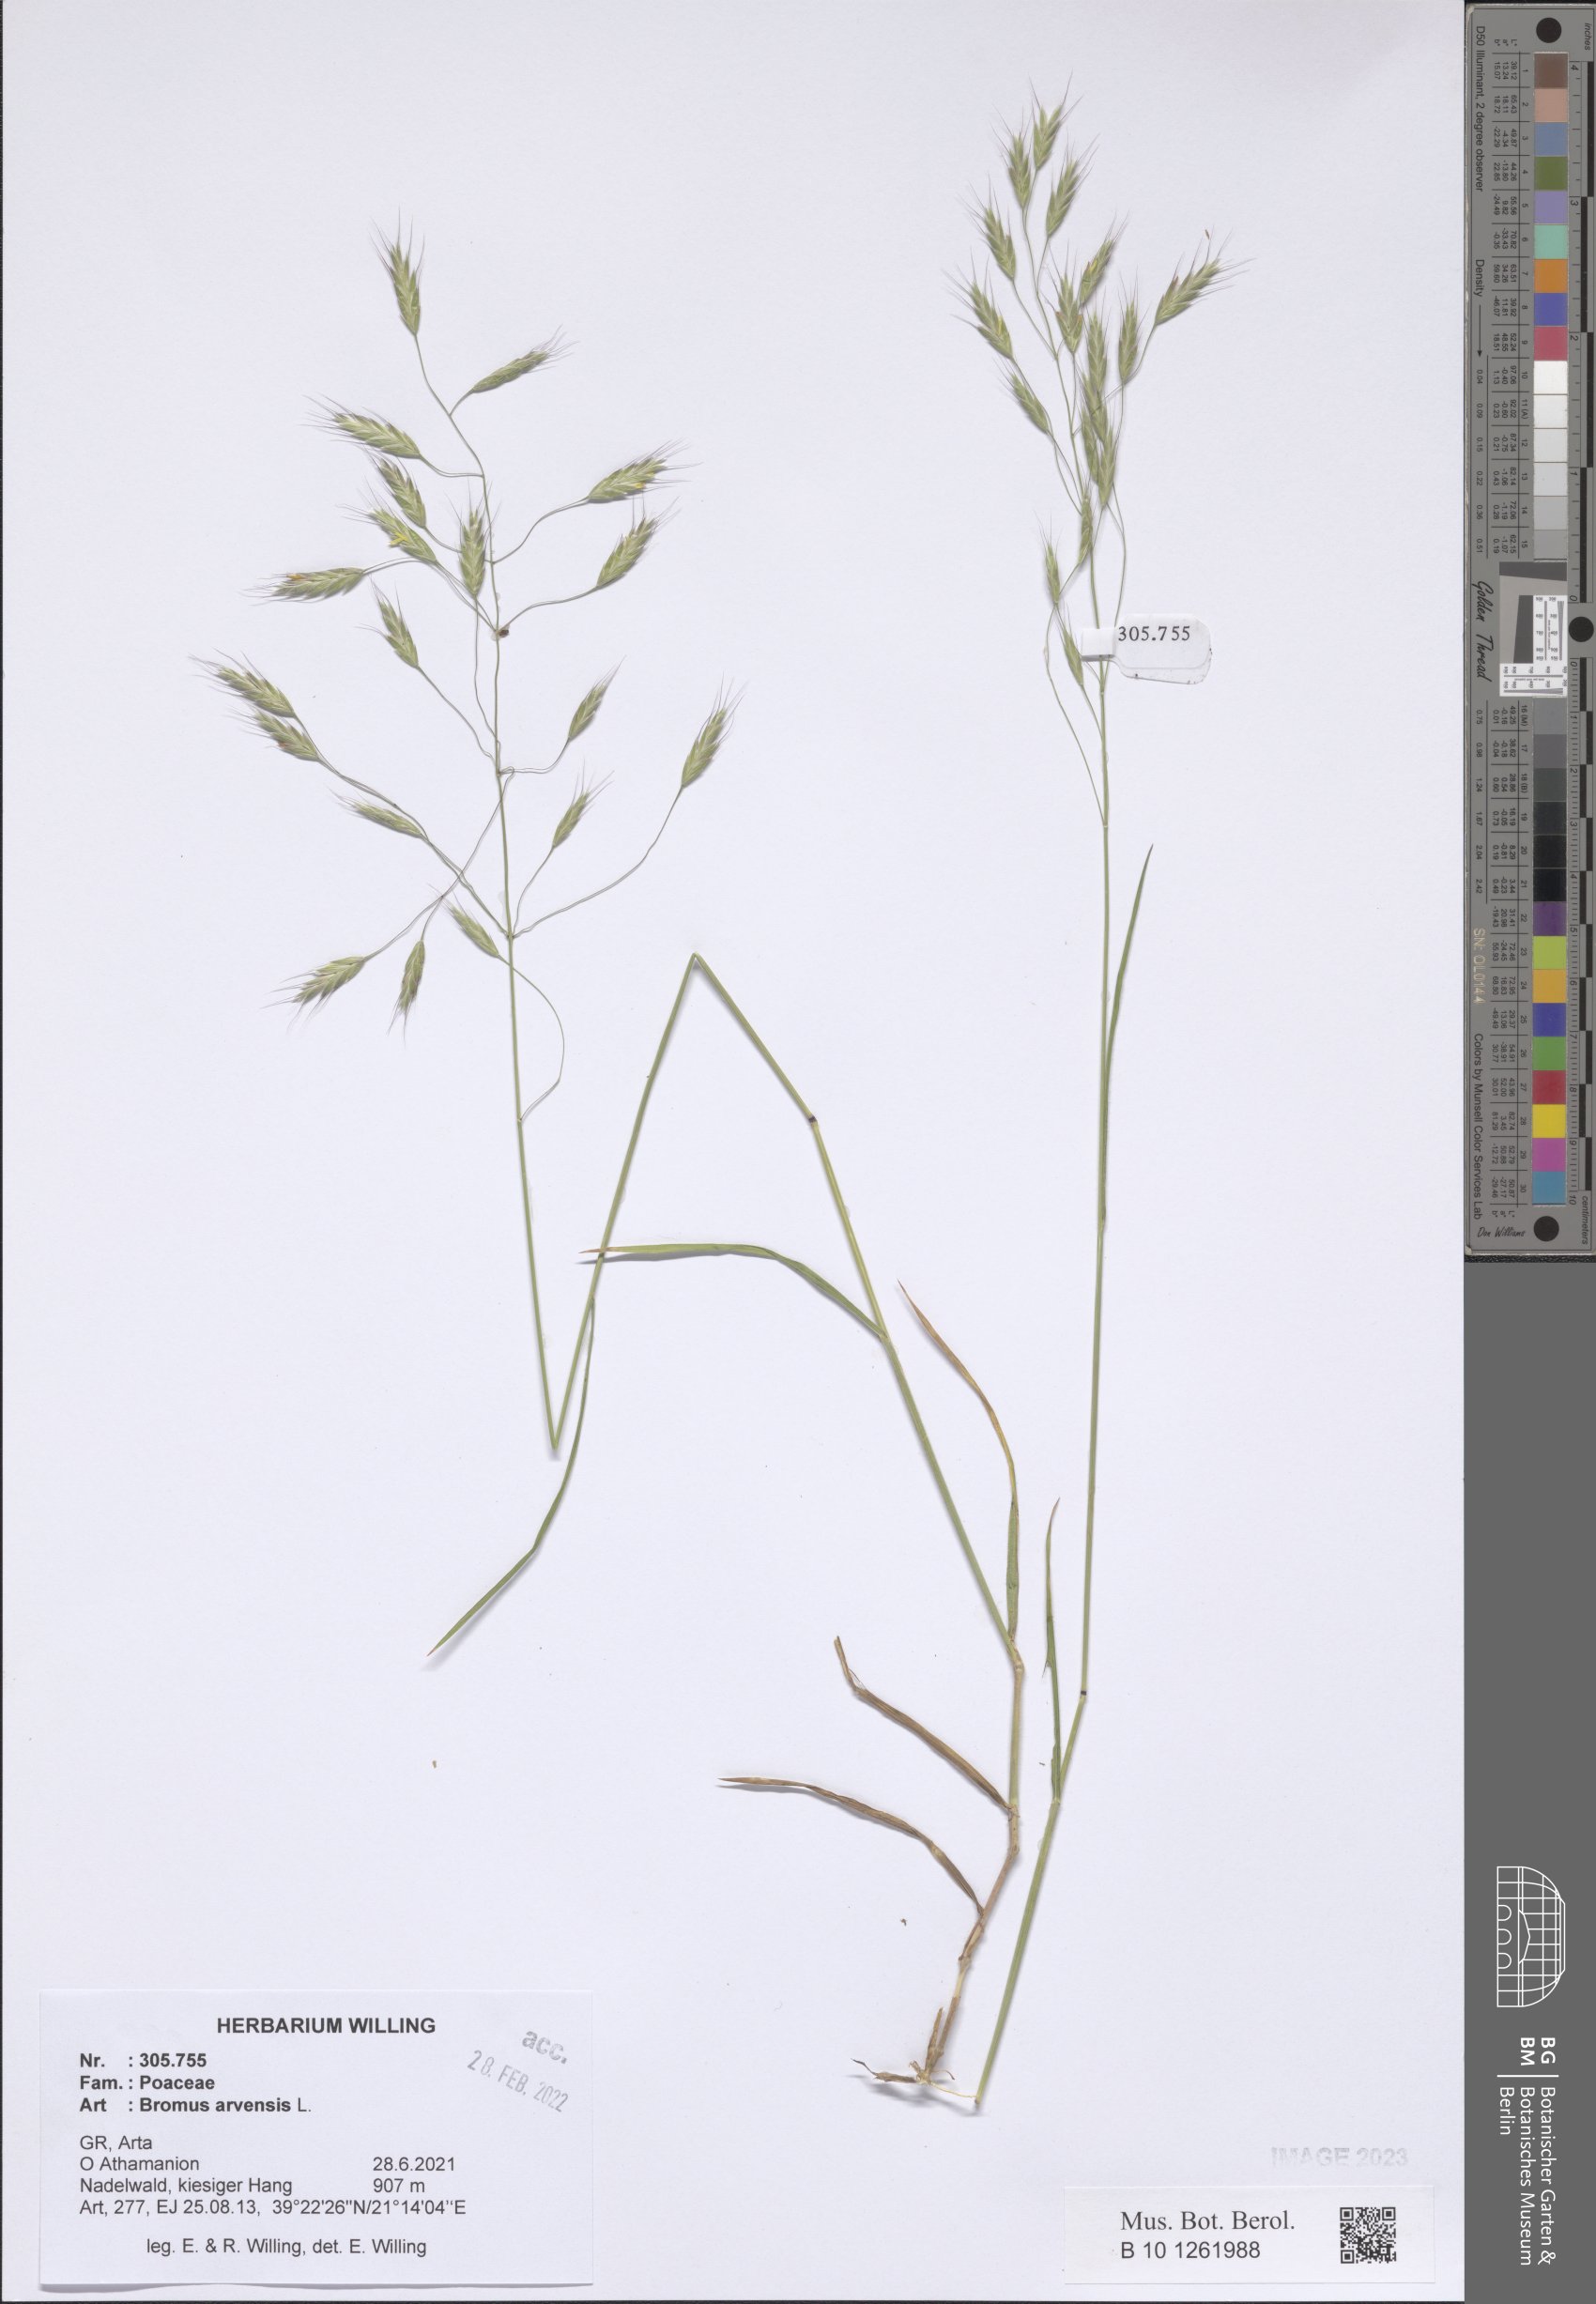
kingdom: Plantae
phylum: Tracheophyta
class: Liliopsida
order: Poales
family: Poaceae
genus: Bromus
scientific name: Bromus arvensis
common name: Field brome
